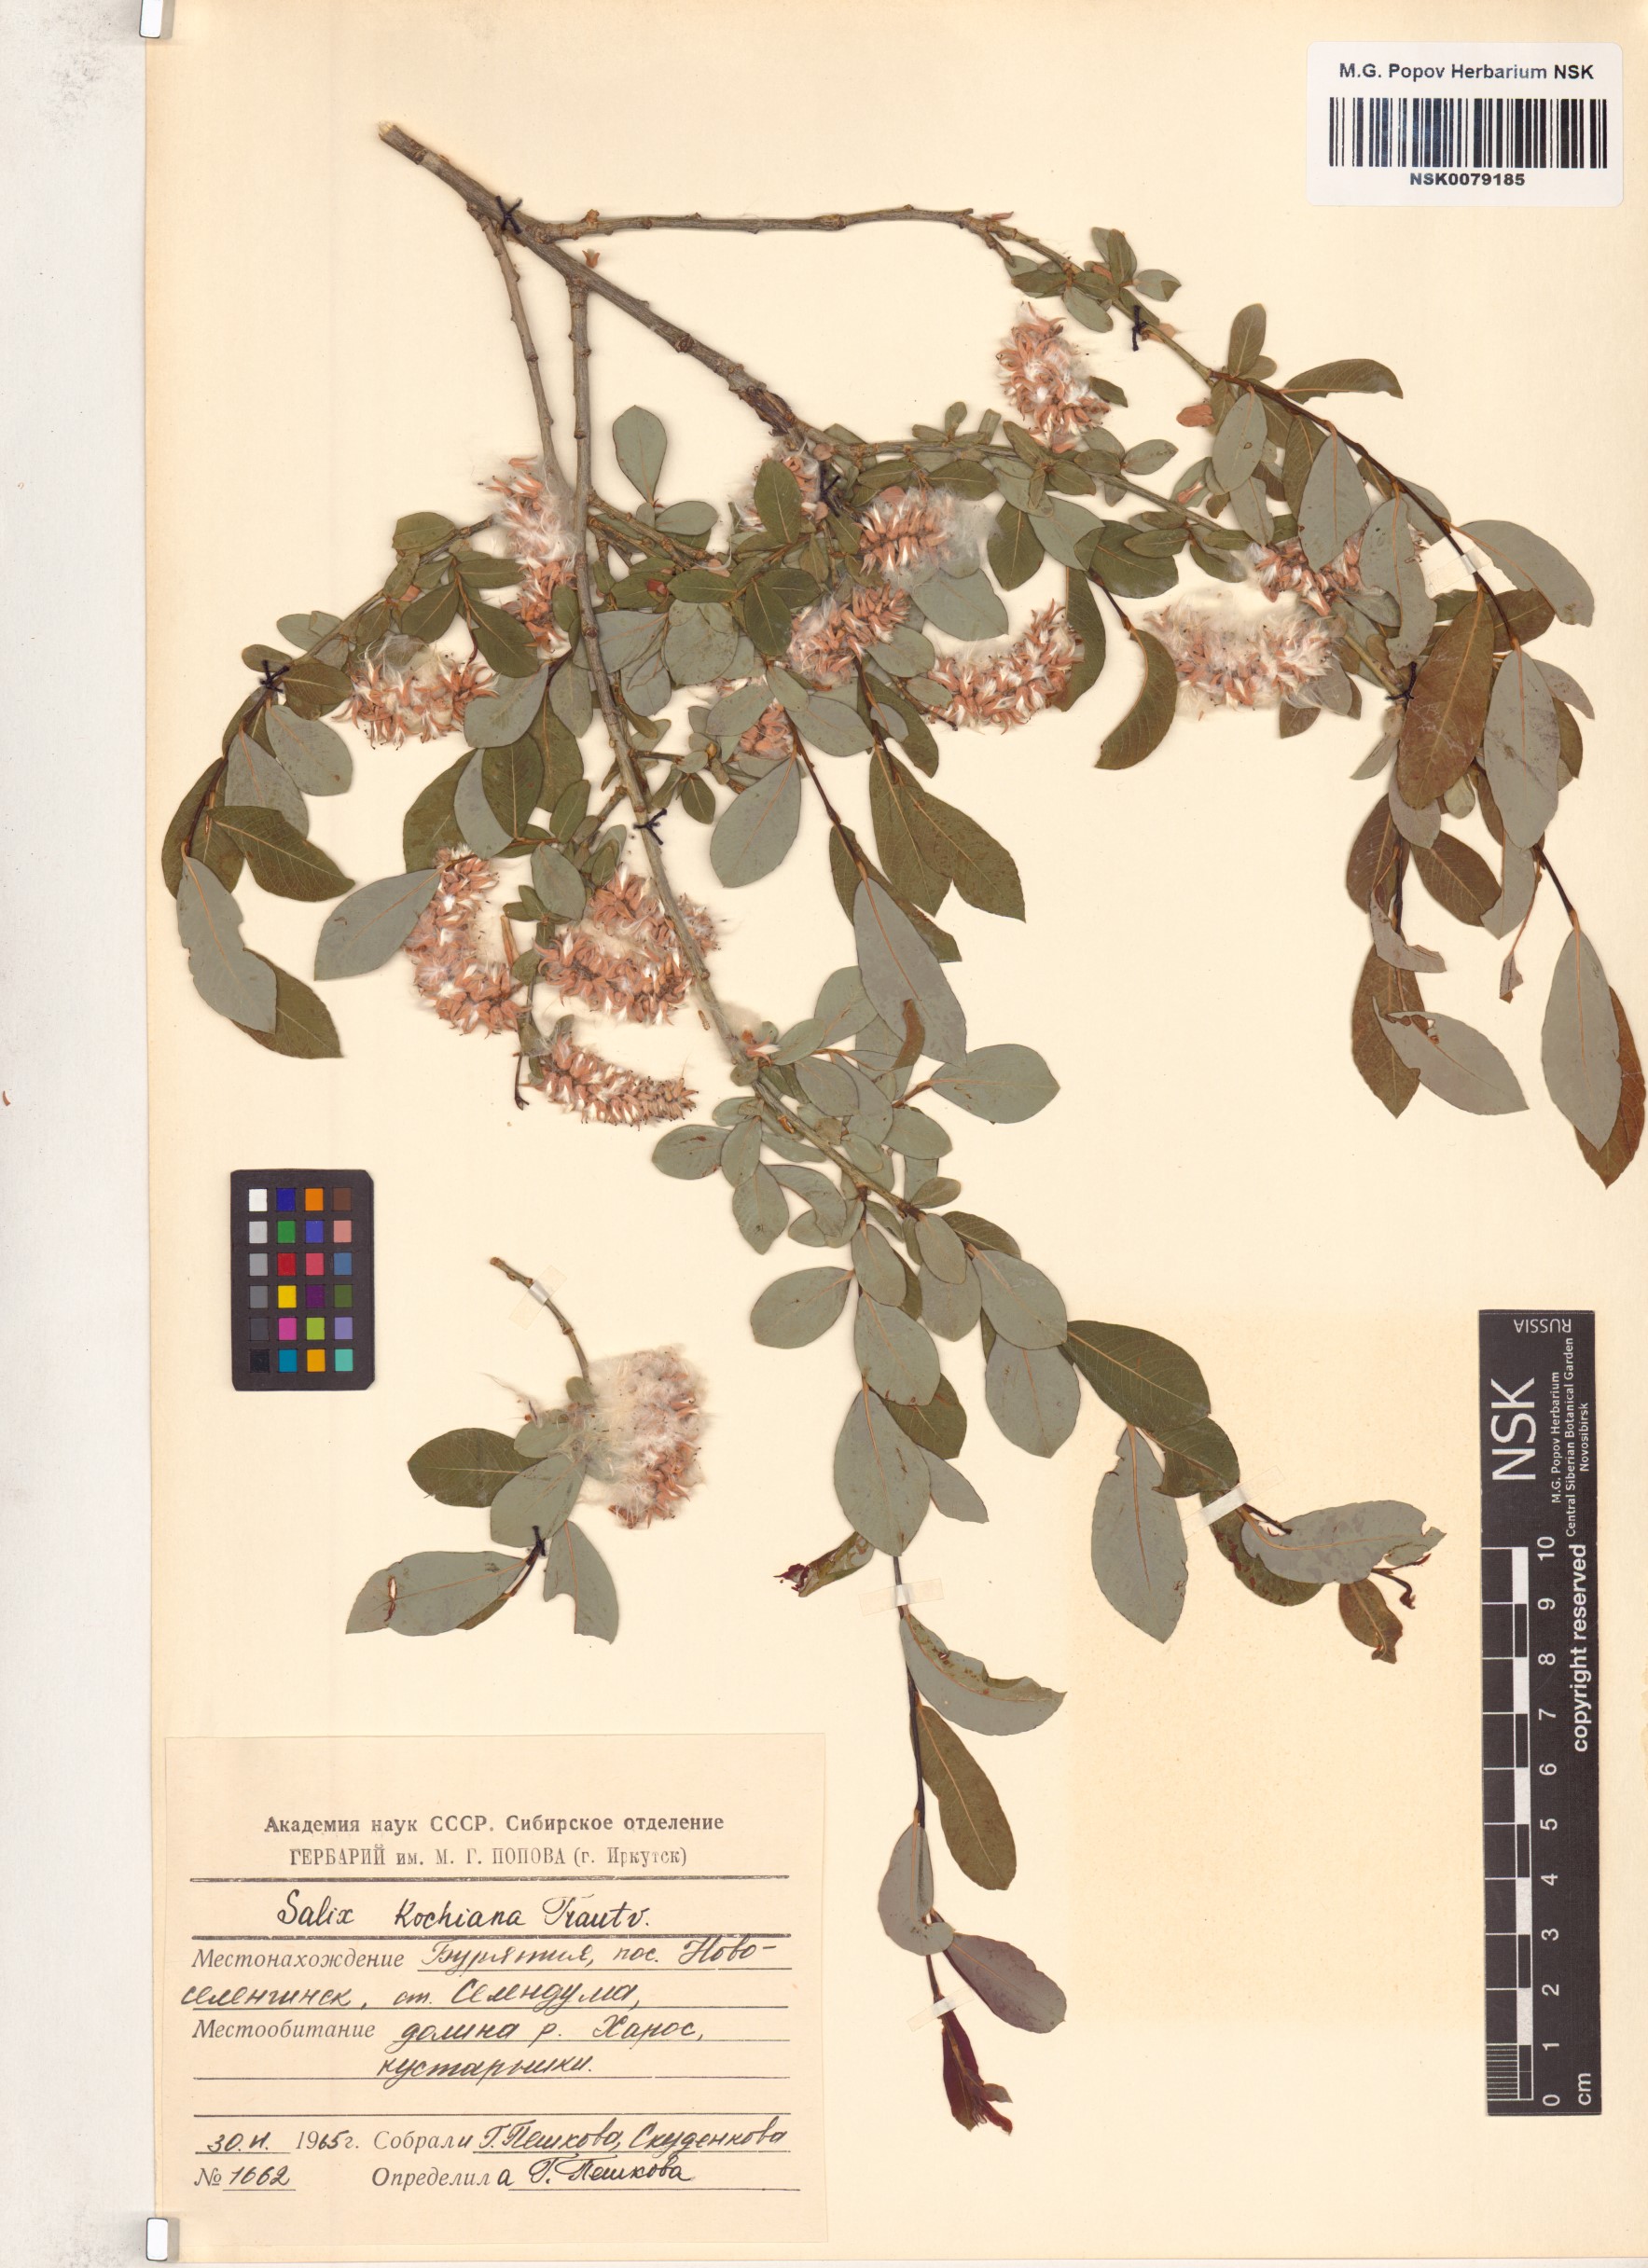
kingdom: Plantae
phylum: Tracheophyta
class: Magnoliopsida
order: Malpighiales
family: Salicaceae
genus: Salix
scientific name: Salix kochiana
